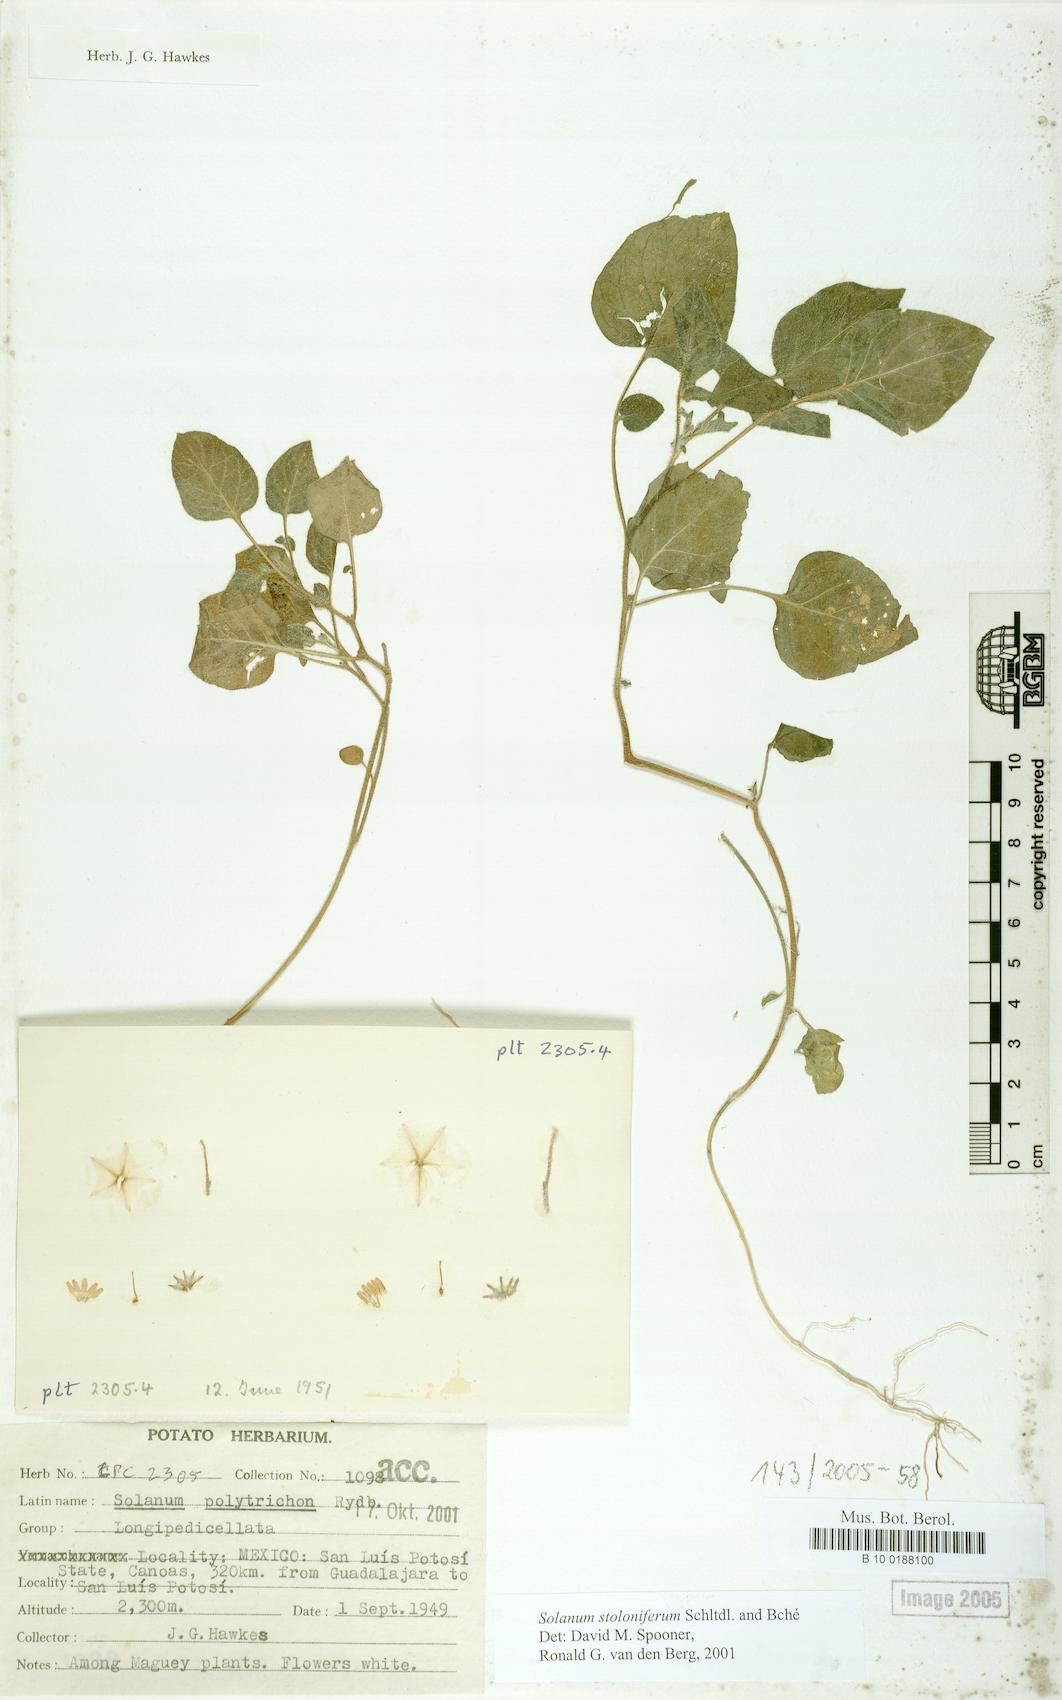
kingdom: Plantae
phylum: Tracheophyta
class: Magnoliopsida
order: Solanales
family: Solanaceae
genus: Solanum
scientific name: Solanum stoloniferum
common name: Fendler's nighshade
